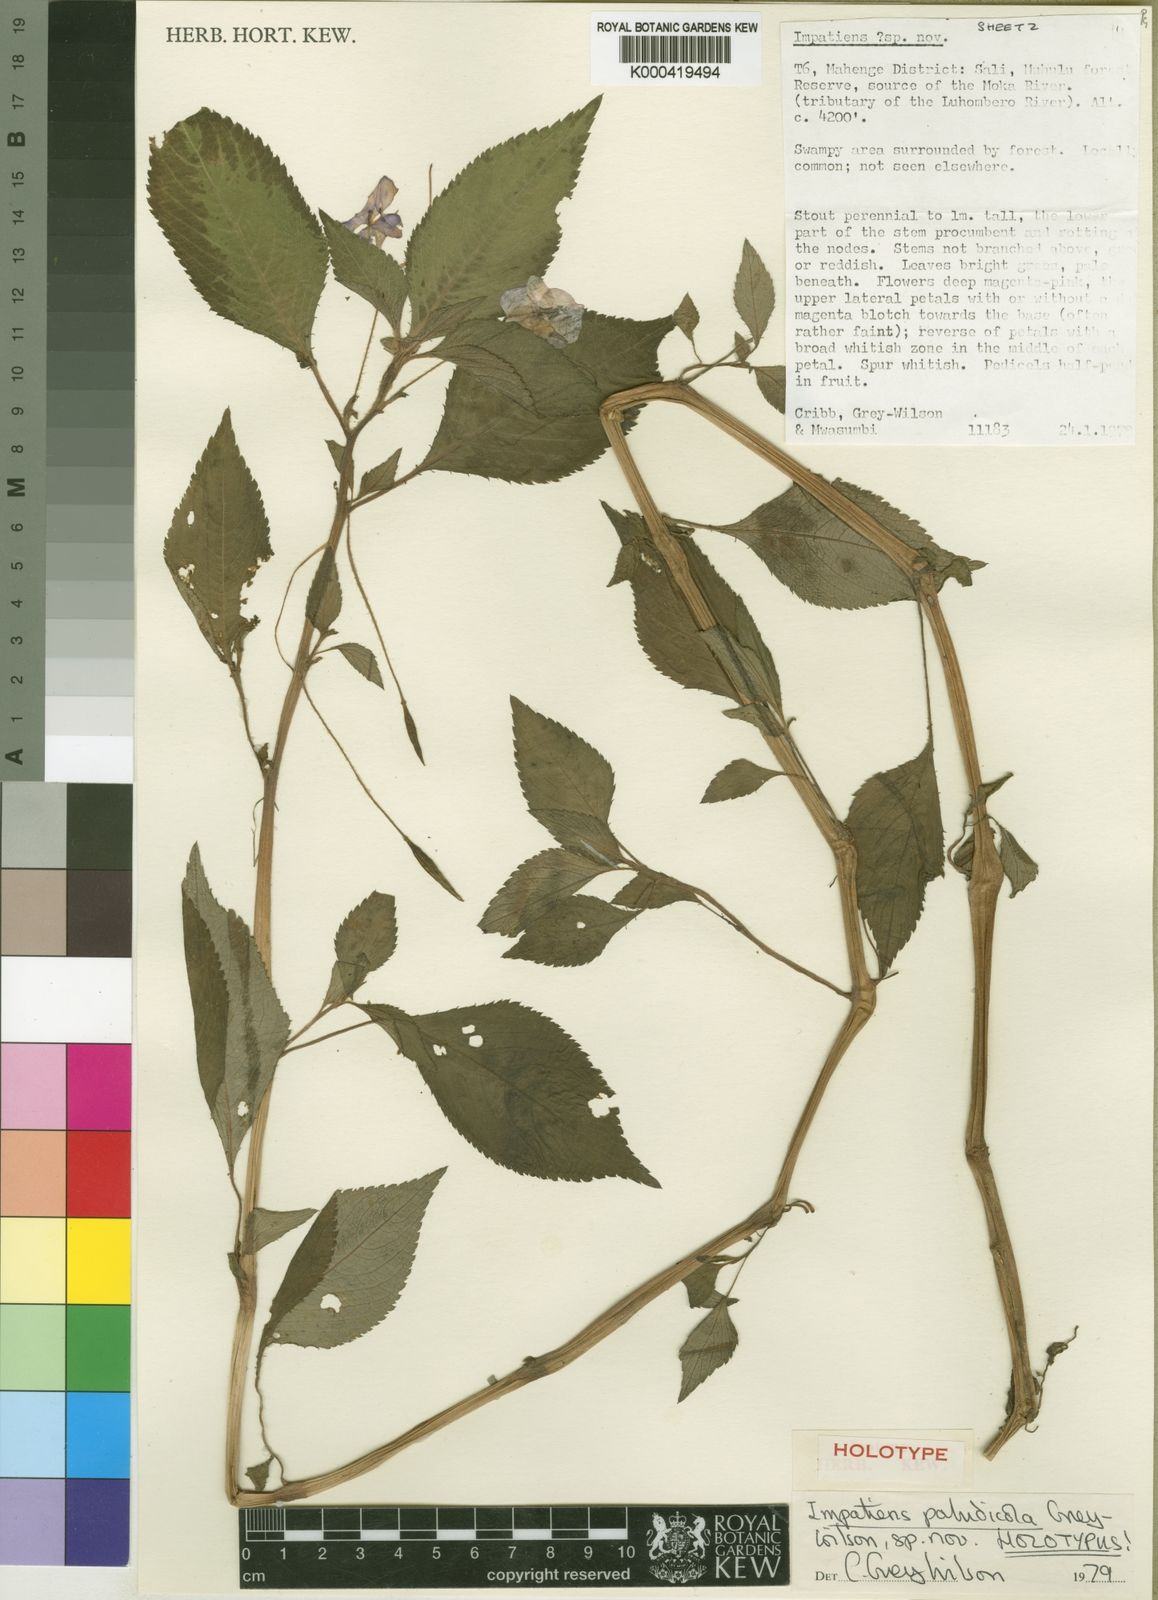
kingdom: Plantae
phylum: Tracheophyta
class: Magnoliopsida
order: Ericales
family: Balsaminaceae
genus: Impatiens
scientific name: Impatiens paludicola
